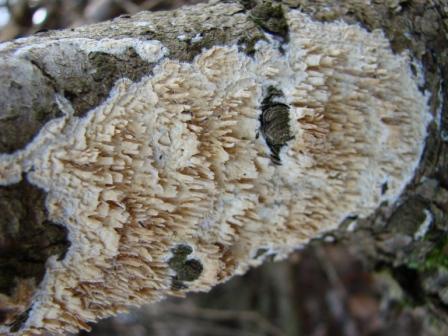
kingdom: Fungi
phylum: Basidiomycota
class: Agaricomycetes
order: Hymenochaetales
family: Schizoporaceae
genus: Xylodon
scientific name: Xylodon radula
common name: grovtandet kalkskind
